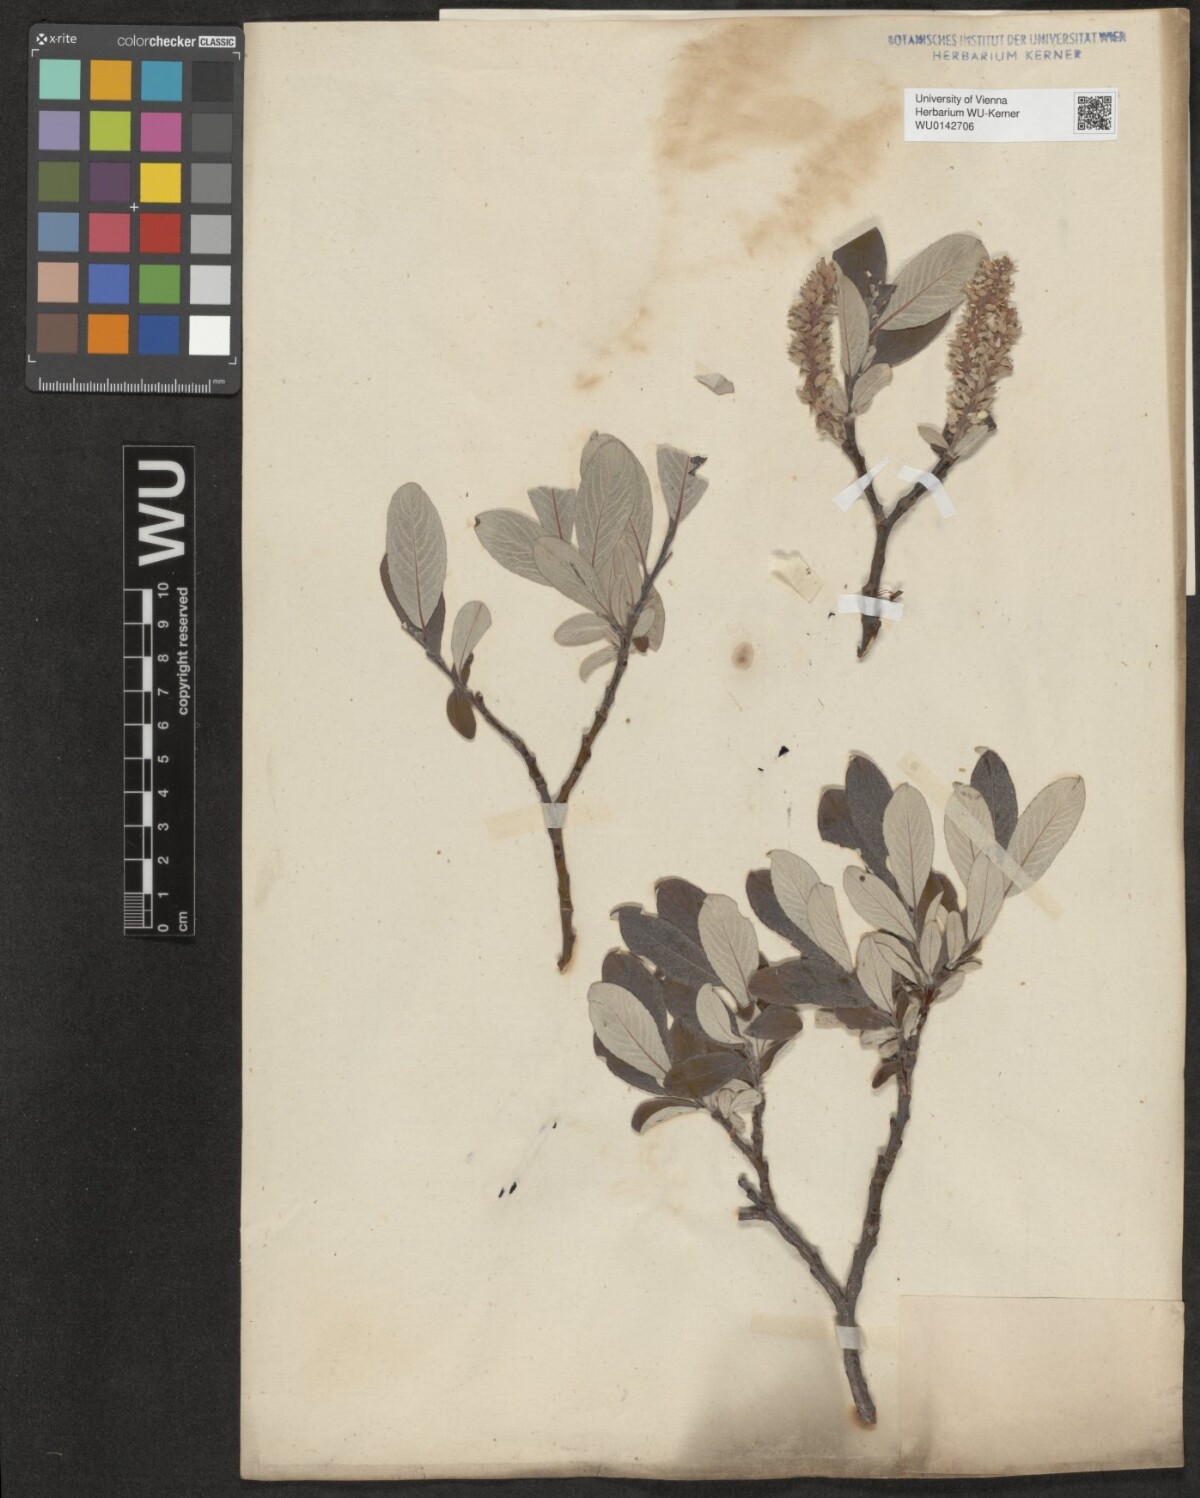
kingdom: Plantae
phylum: Tracheophyta
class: Magnoliopsida
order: Malpighiales
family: Salicaceae
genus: Salix
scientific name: Salix helvetica
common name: Swiss willow
